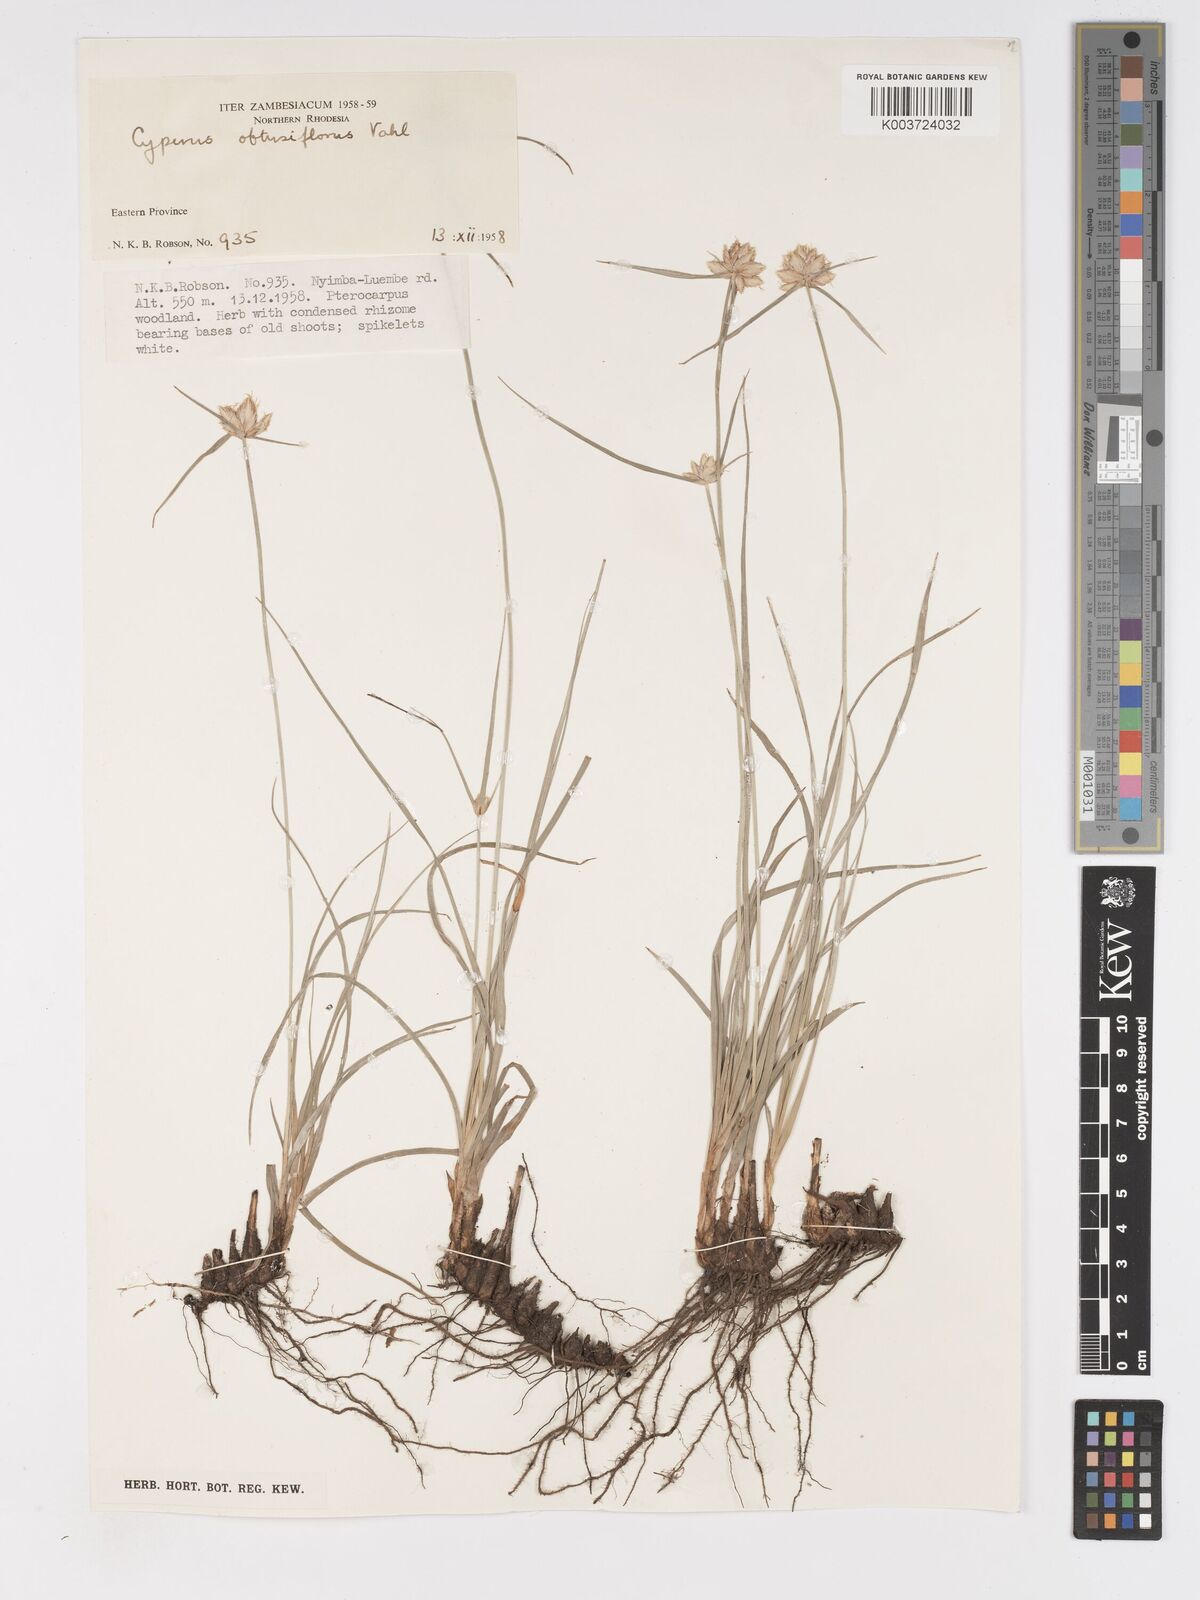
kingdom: Plantae
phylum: Tracheophyta
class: Liliopsida
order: Poales
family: Cyperaceae
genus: Cyperus
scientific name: Cyperus niveus
